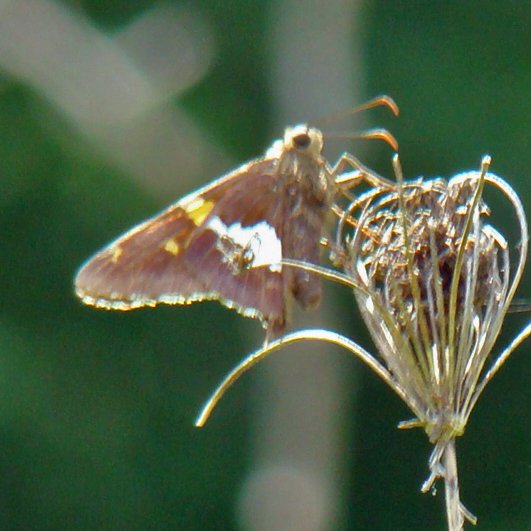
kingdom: Animalia
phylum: Arthropoda
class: Insecta
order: Lepidoptera
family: Hesperiidae
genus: Epargyreus
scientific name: Epargyreus clarus
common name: Silver-spotted Skipper
